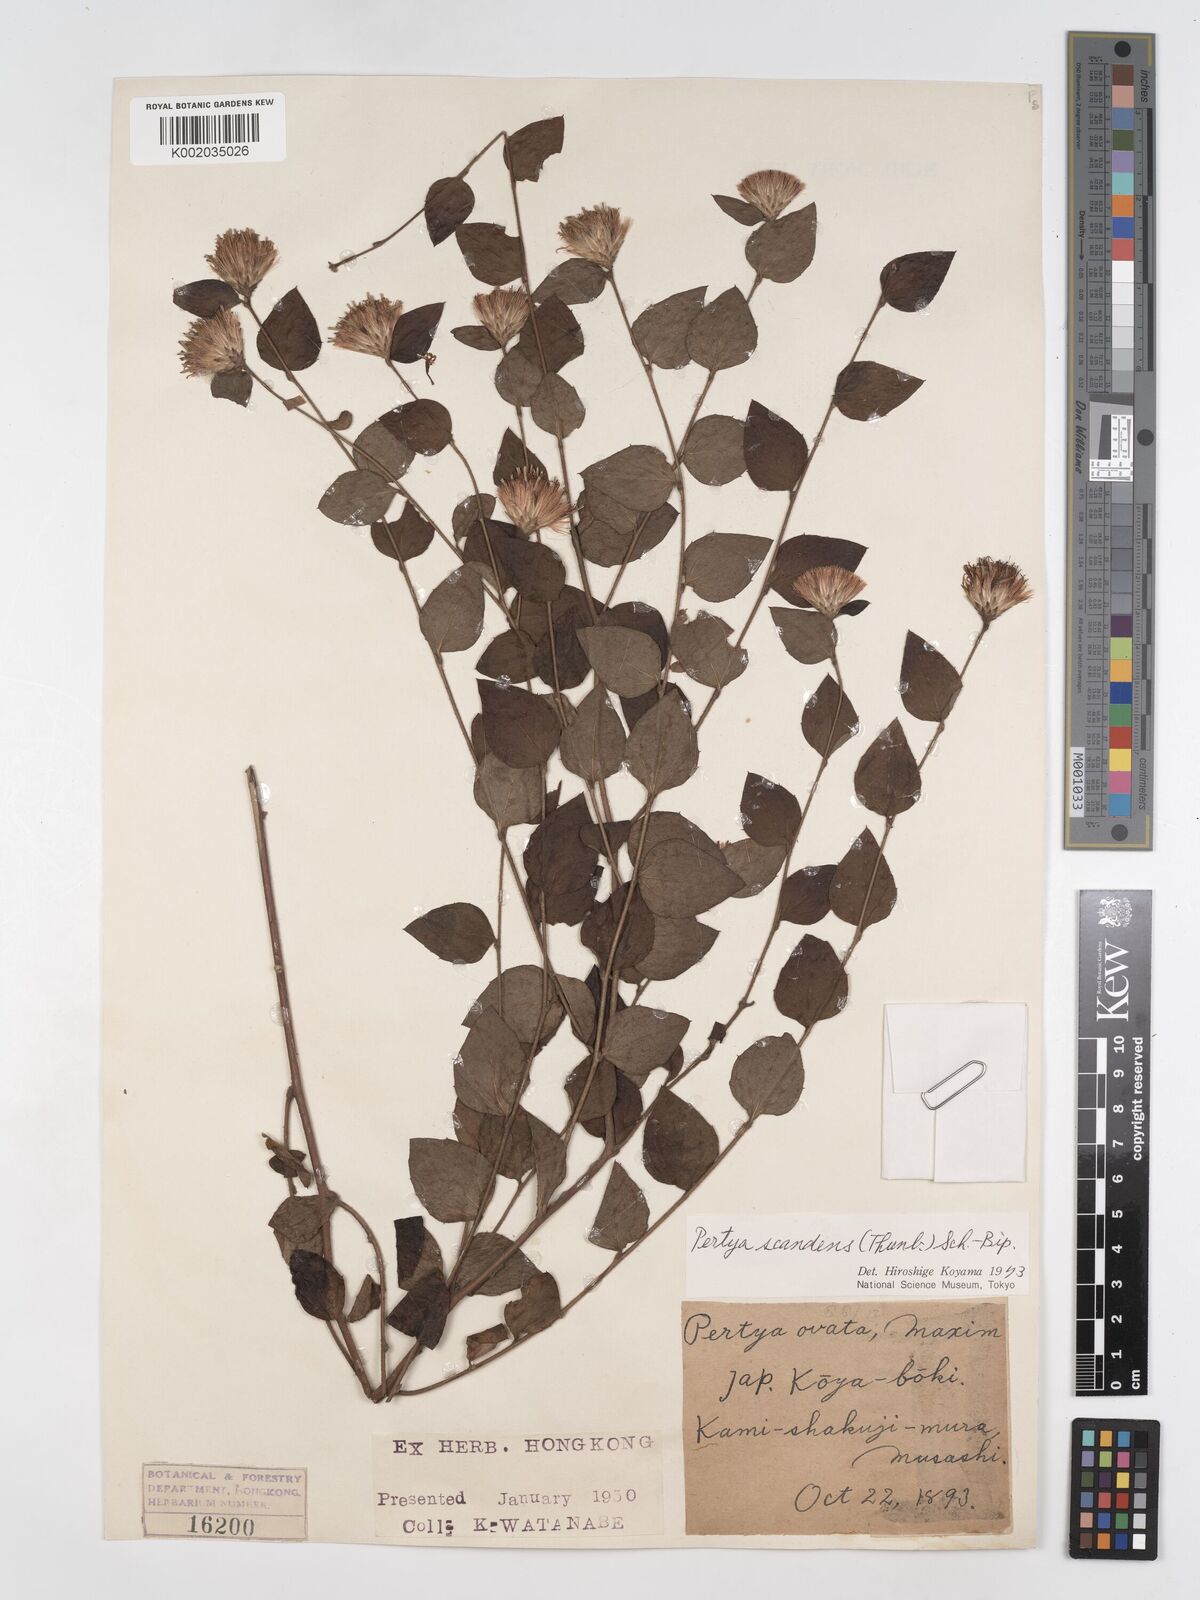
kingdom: Plantae
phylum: Tracheophyta
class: Magnoliopsida
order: Asterales
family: Asteraceae
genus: Pertya
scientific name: Pertya scandens
